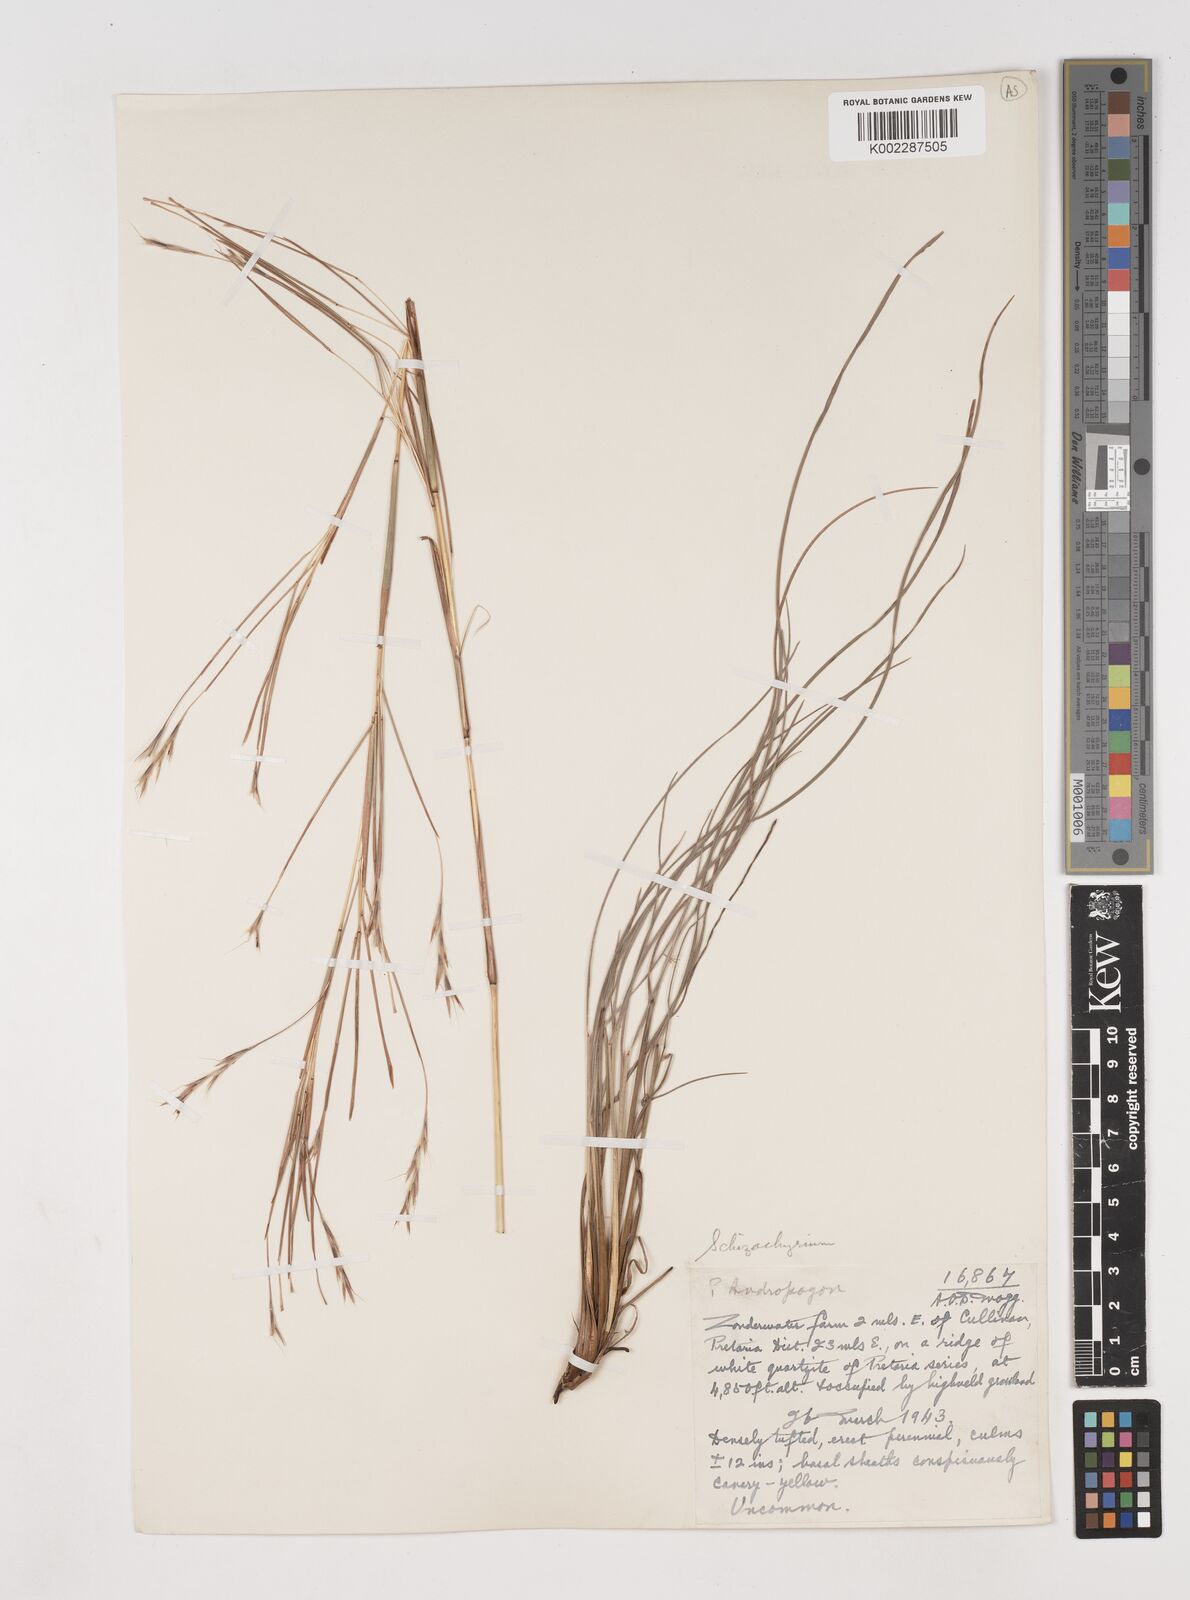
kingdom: Plantae
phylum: Tracheophyta
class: Liliopsida
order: Poales
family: Poaceae
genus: Schizachyrium
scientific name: Schizachyrium jeffreysii
